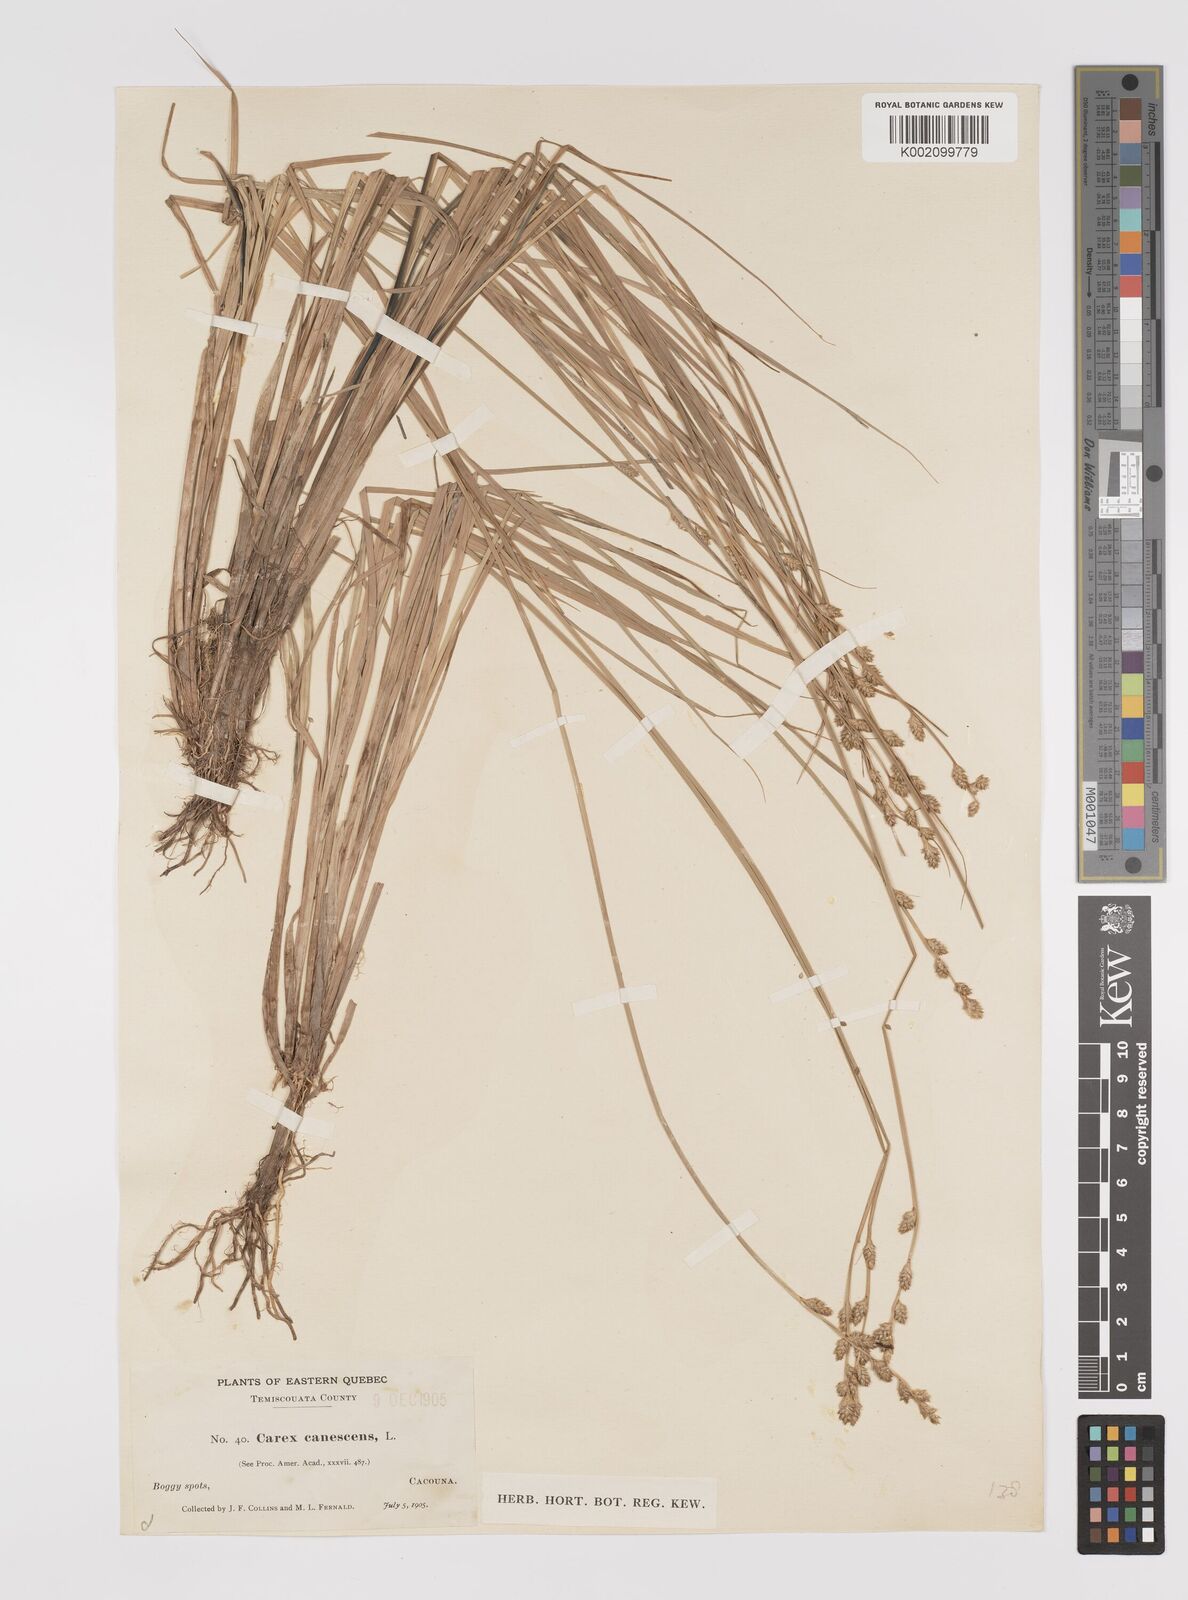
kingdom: Plantae
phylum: Tracheophyta
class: Liliopsida
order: Poales
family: Cyperaceae
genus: Carex
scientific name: Carex curta
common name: White sedge
